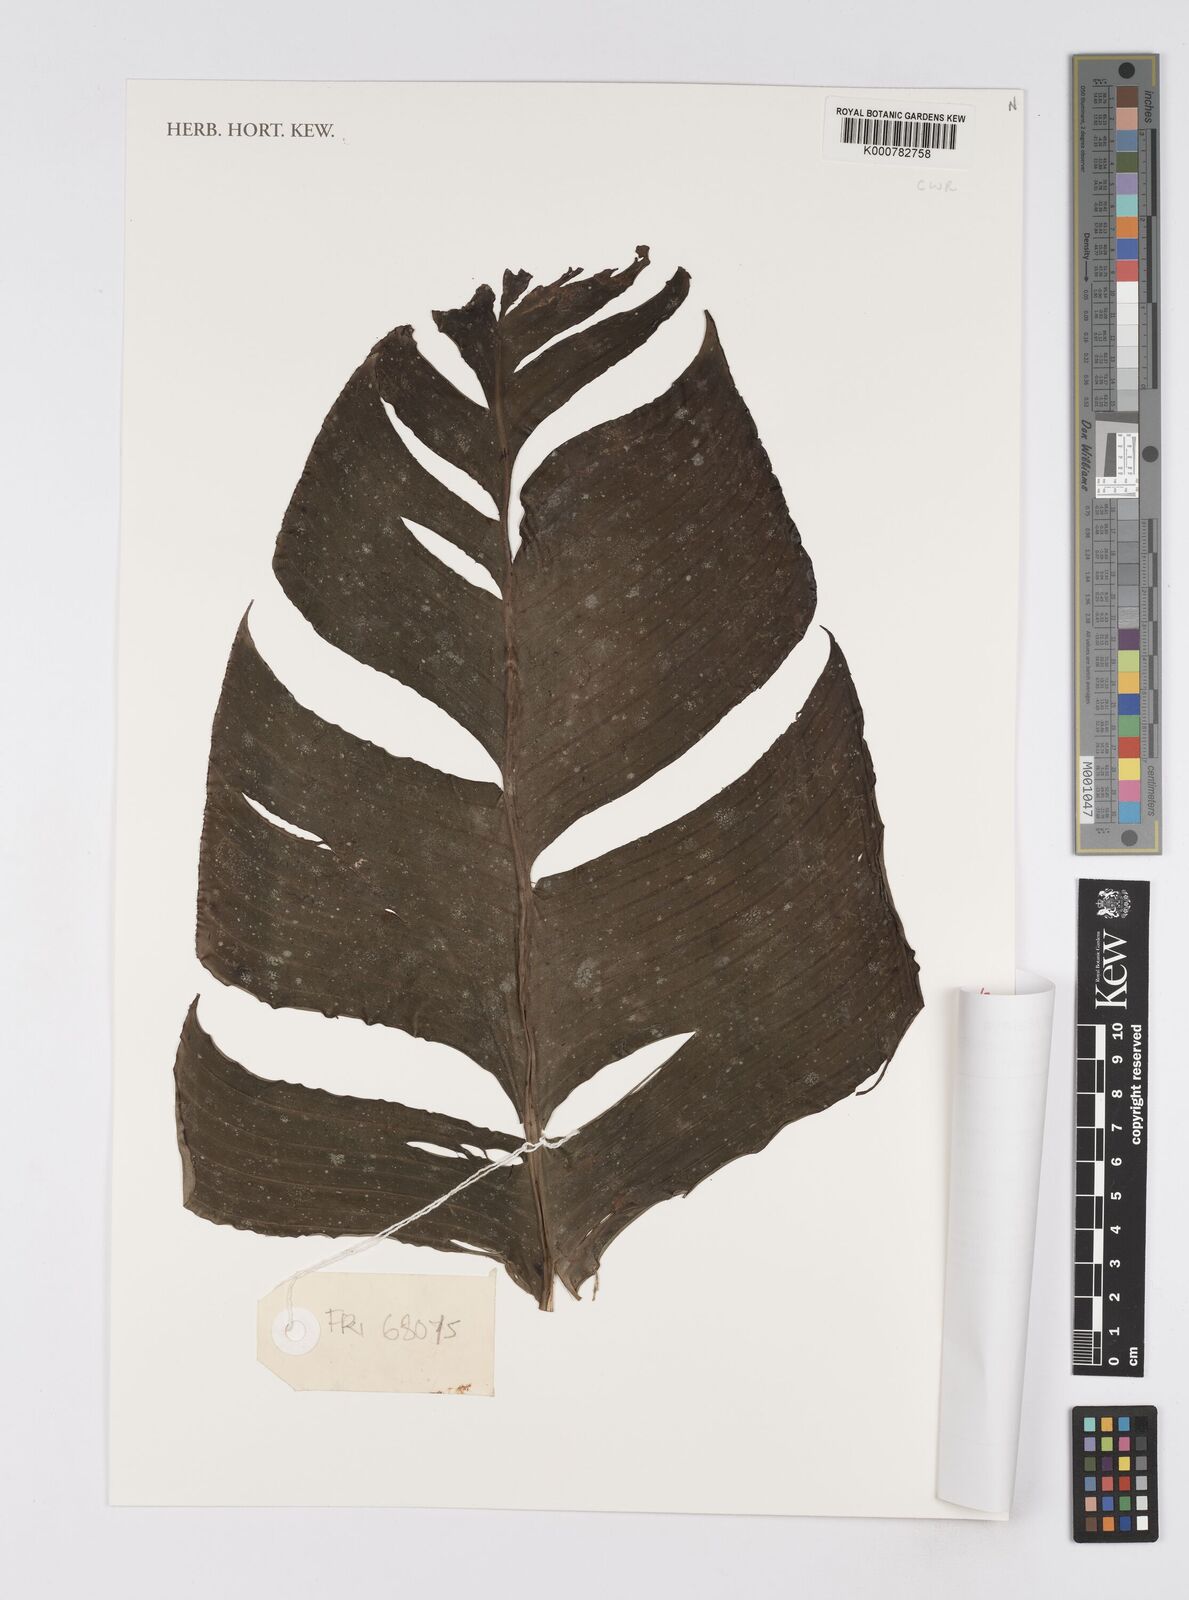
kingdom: Plantae
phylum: Tracheophyta
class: Liliopsida
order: Zingiberales
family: Musaceae
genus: Musa
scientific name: Musa gracilis
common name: Johore banana
